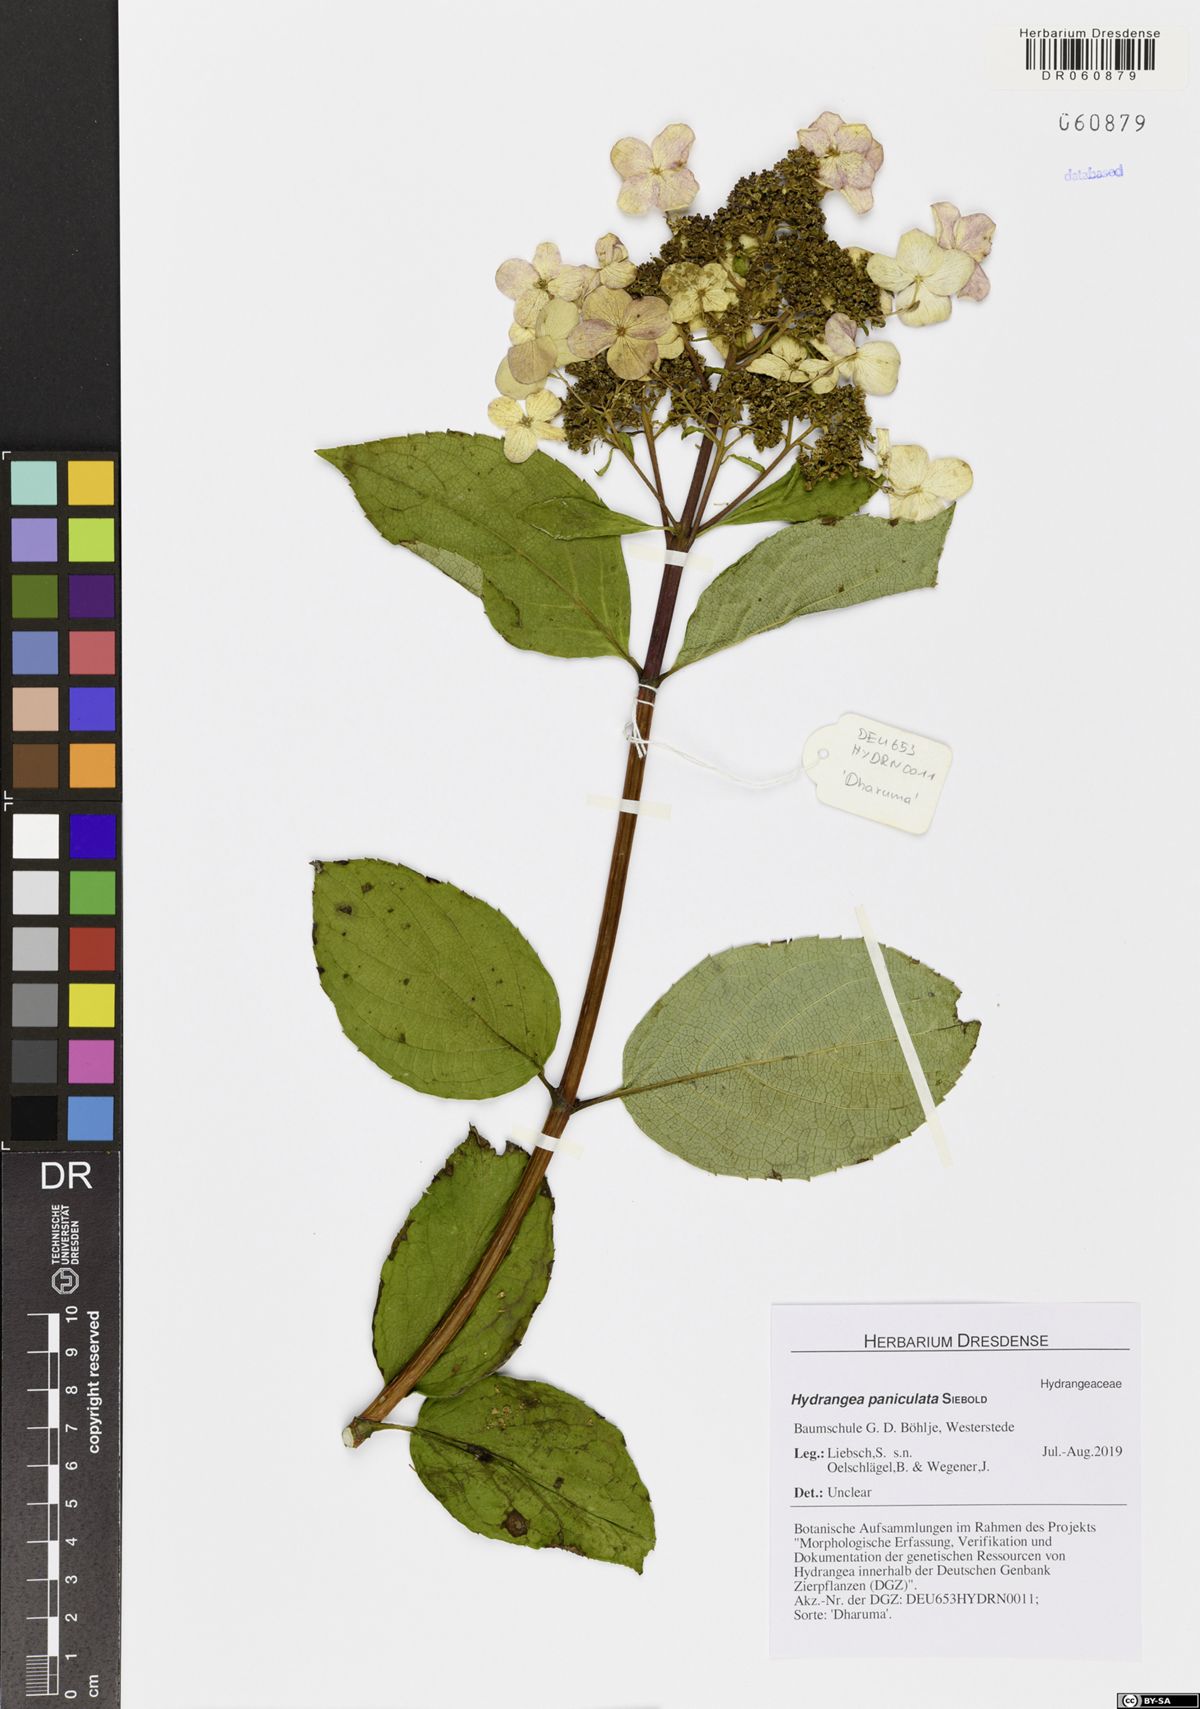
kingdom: Plantae
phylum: Tracheophyta
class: Magnoliopsida
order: Cornales
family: Hydrangeaceae
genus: Hydrangea
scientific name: Hydrangea paniculata
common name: Panicled hydrangea
